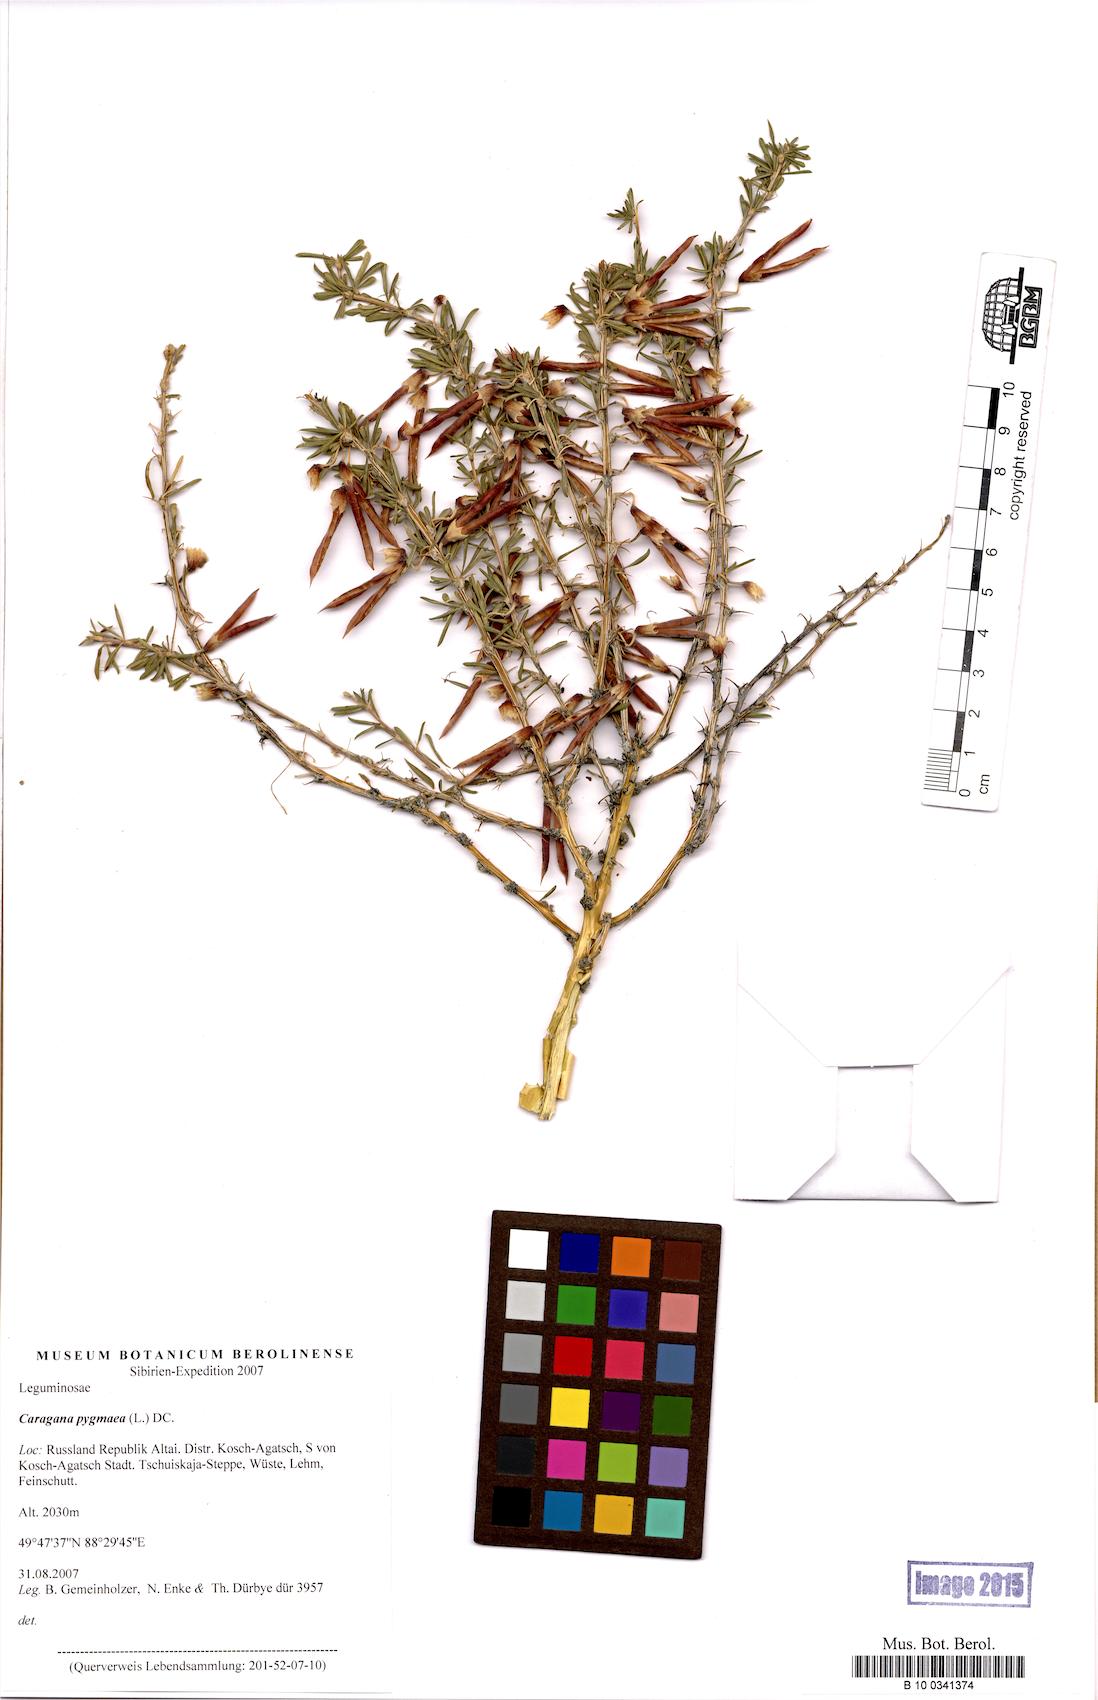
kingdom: Plantae
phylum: Tracheophyta
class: Magnoliopsida
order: Fabales
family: Fabaceae
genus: Caragana
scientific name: Caragana pygmaea
